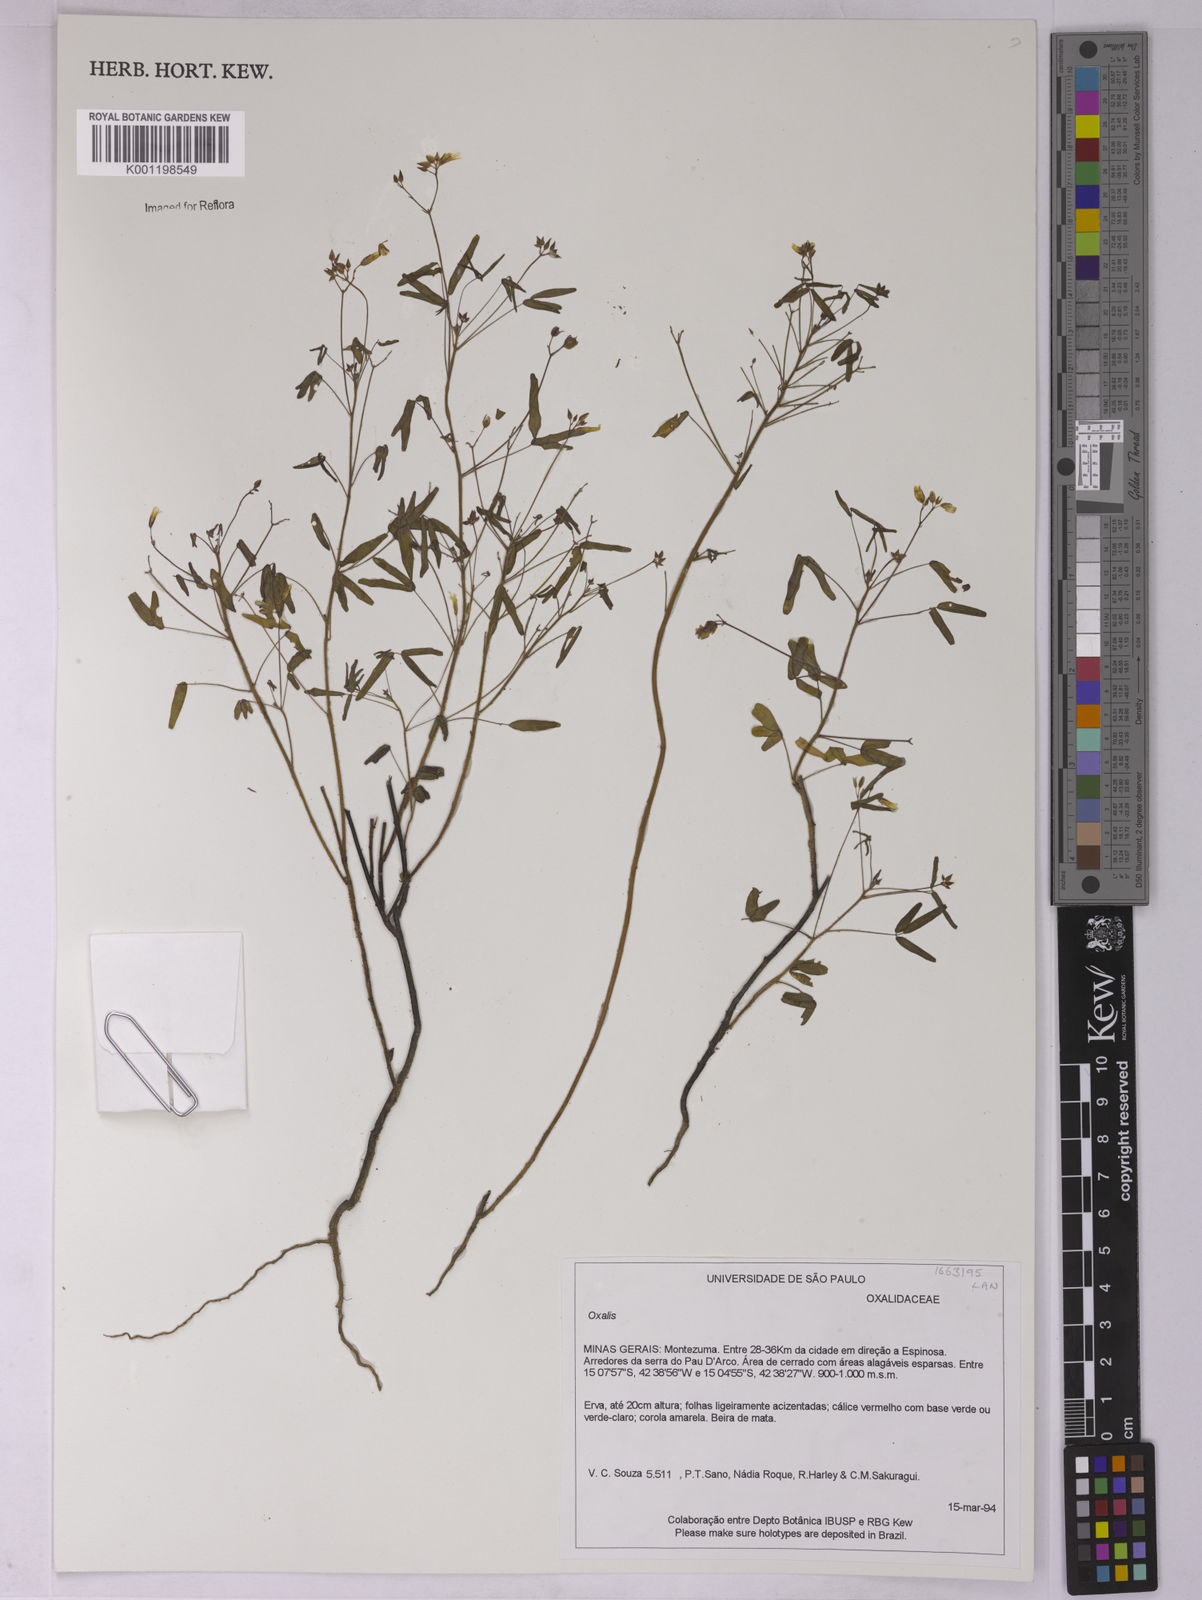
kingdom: Plantae
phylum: Tracheophyta
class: Magnoliopsida
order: Oxalidales
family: Oxalidaceae
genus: Oxalis
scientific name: Oxalis
